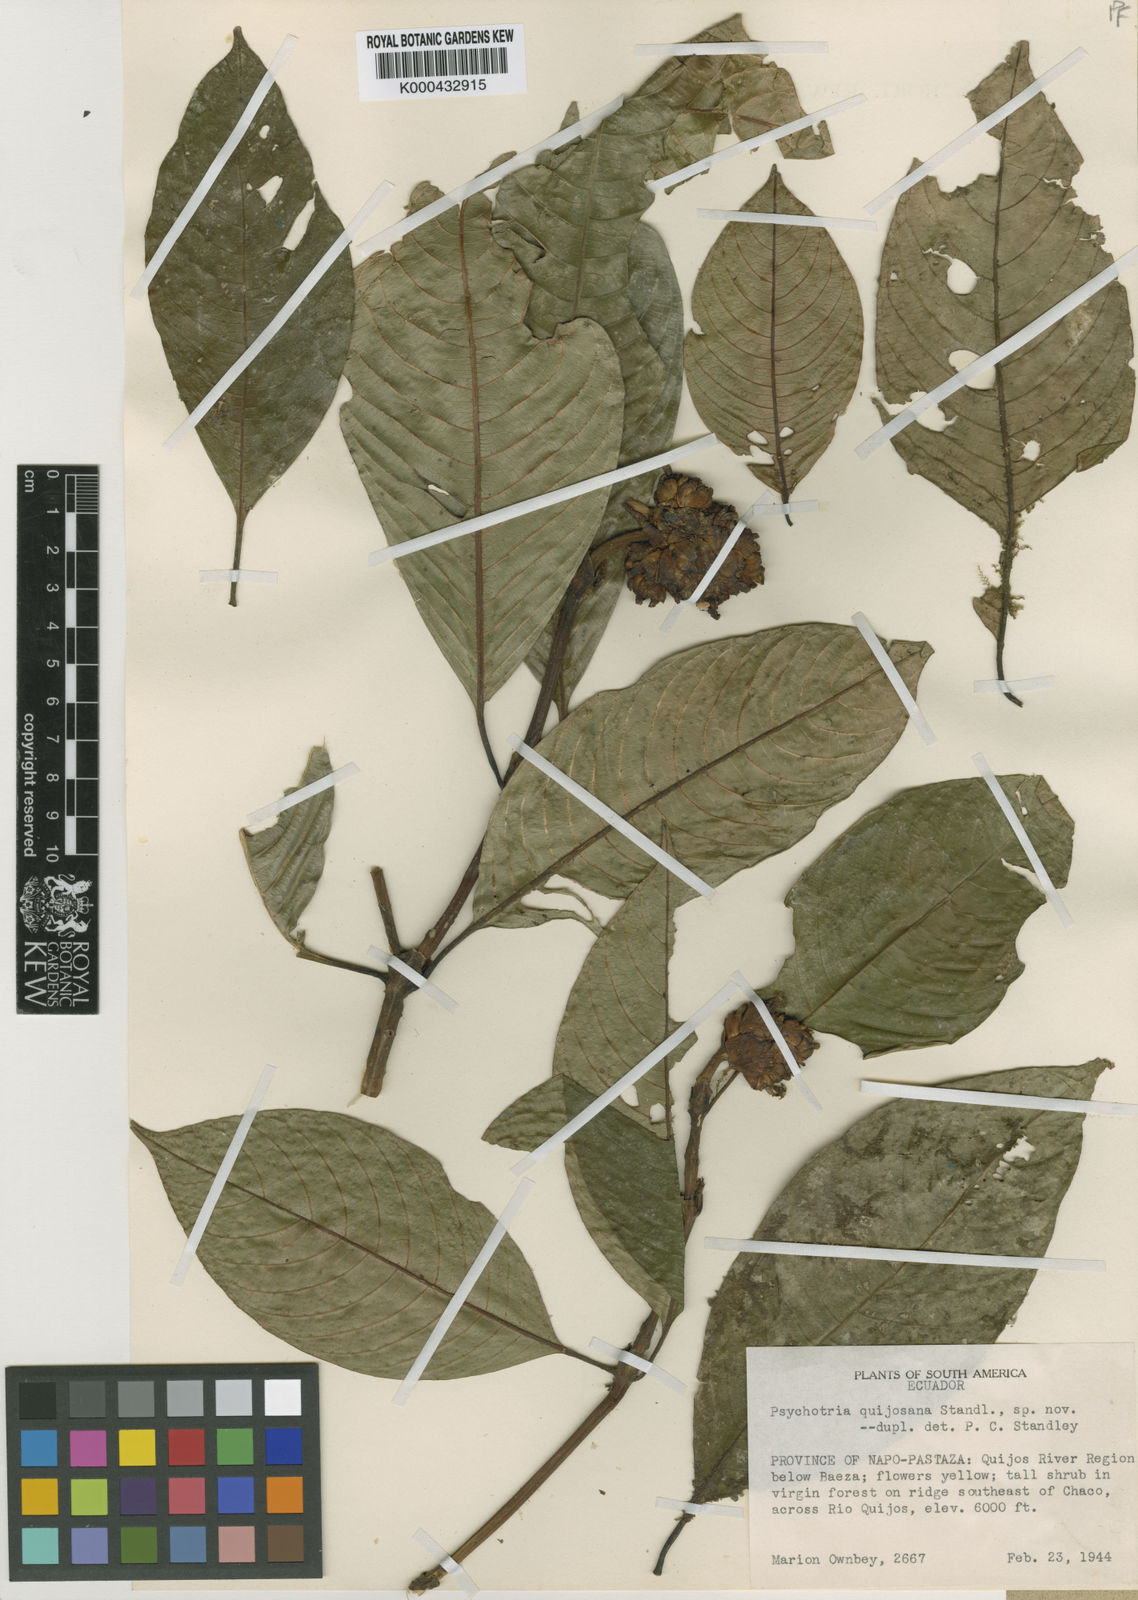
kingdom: Plantae
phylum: Tracheophyta
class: Magnoliopsida
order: Gentianales
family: Rubiaceae
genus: Psychotria
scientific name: Psychotria
